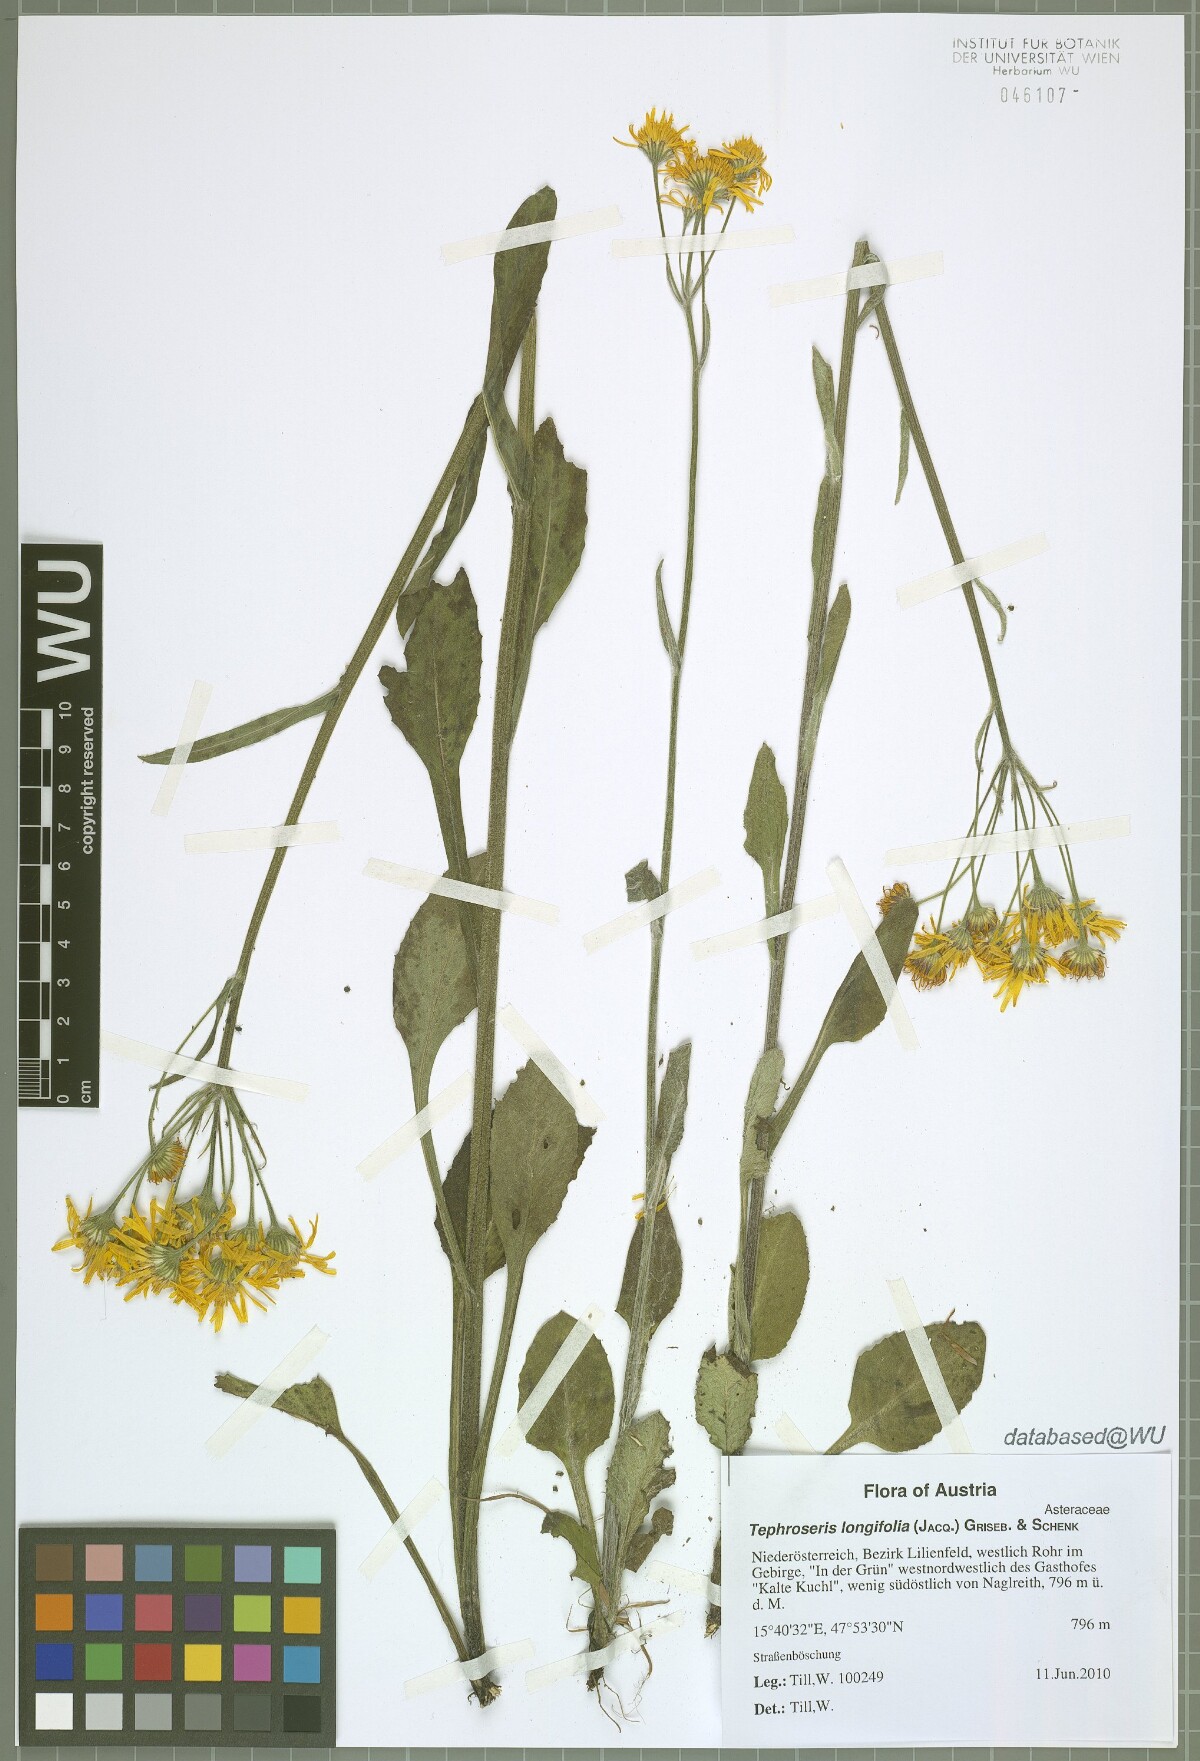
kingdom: Plantae
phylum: Tracheophyta
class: Magnoliopsida
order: Asterales
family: Asteraceae
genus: Tephroseris
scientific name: Tephroseris longifolia
